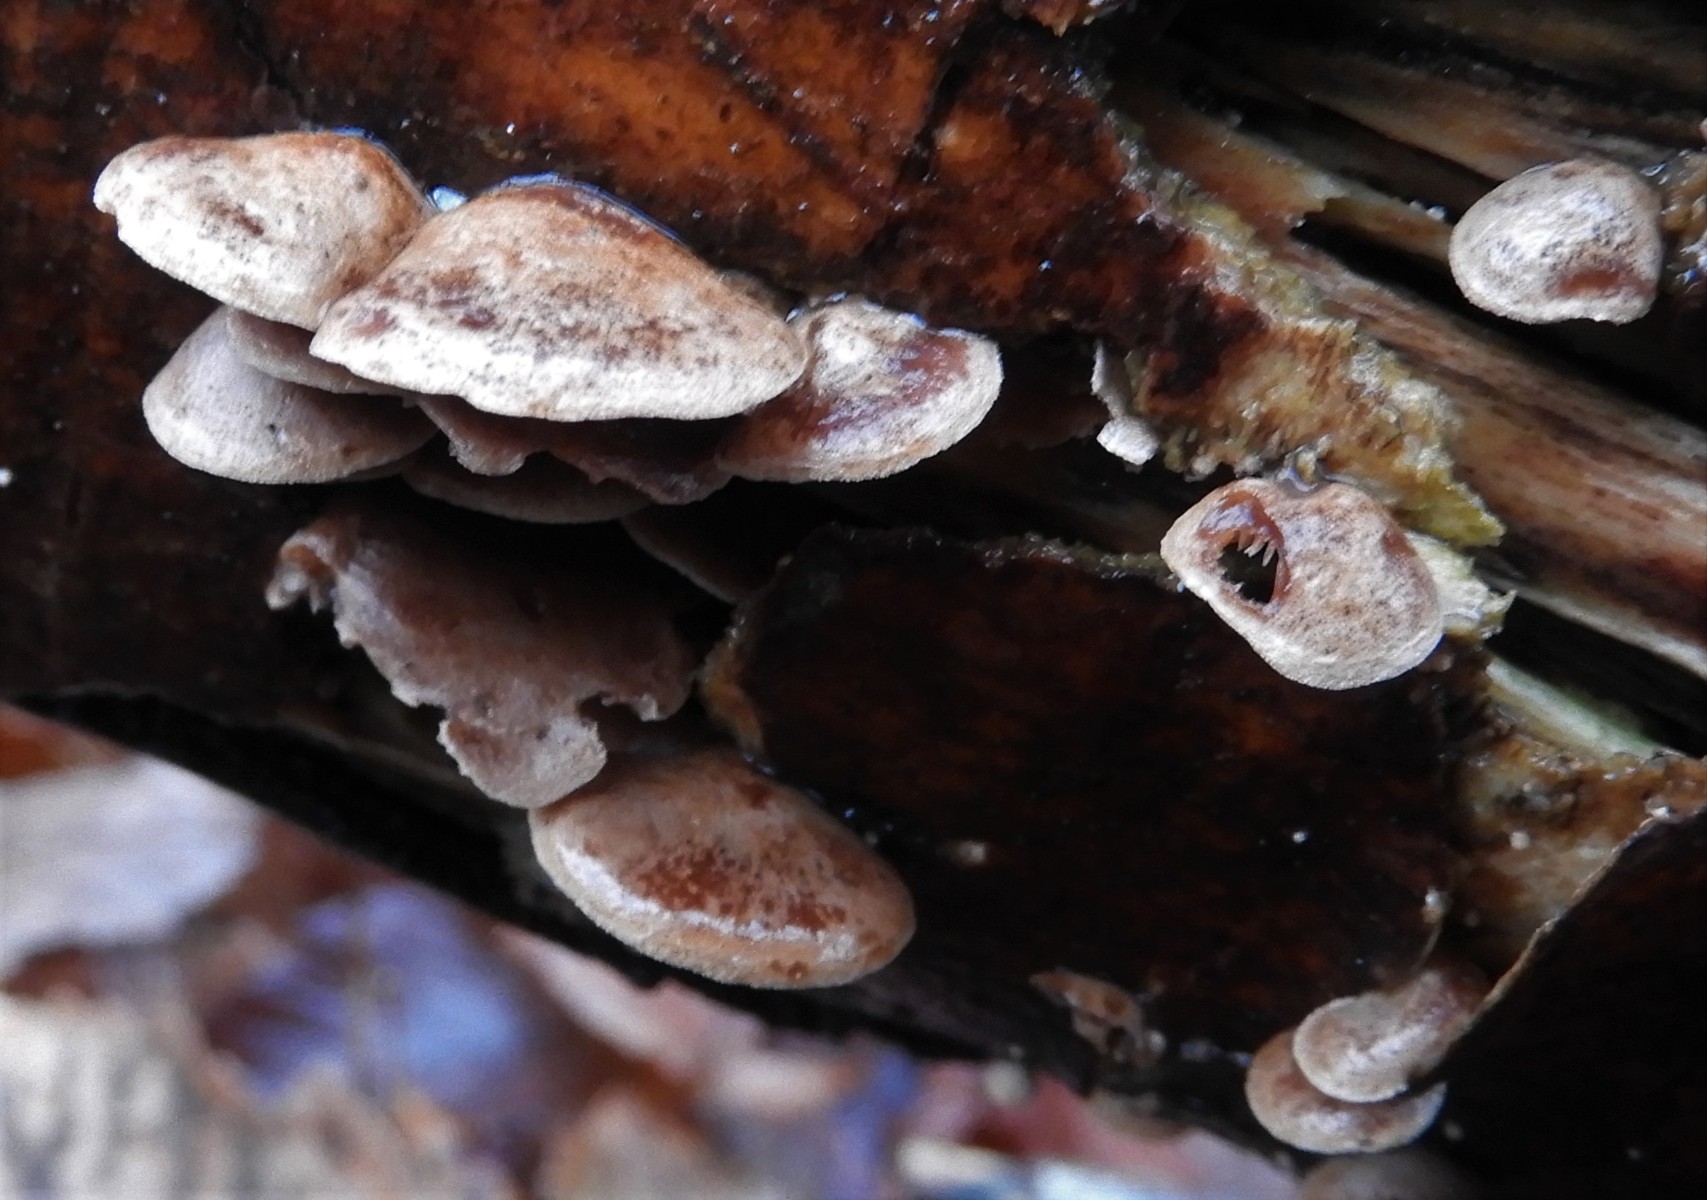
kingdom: Fungi
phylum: Basidiomycota
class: Agaricomycetes
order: Agaricales
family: Strophariaceae
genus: Deconica
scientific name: Deconica horizontalis
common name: ved-stråhat
